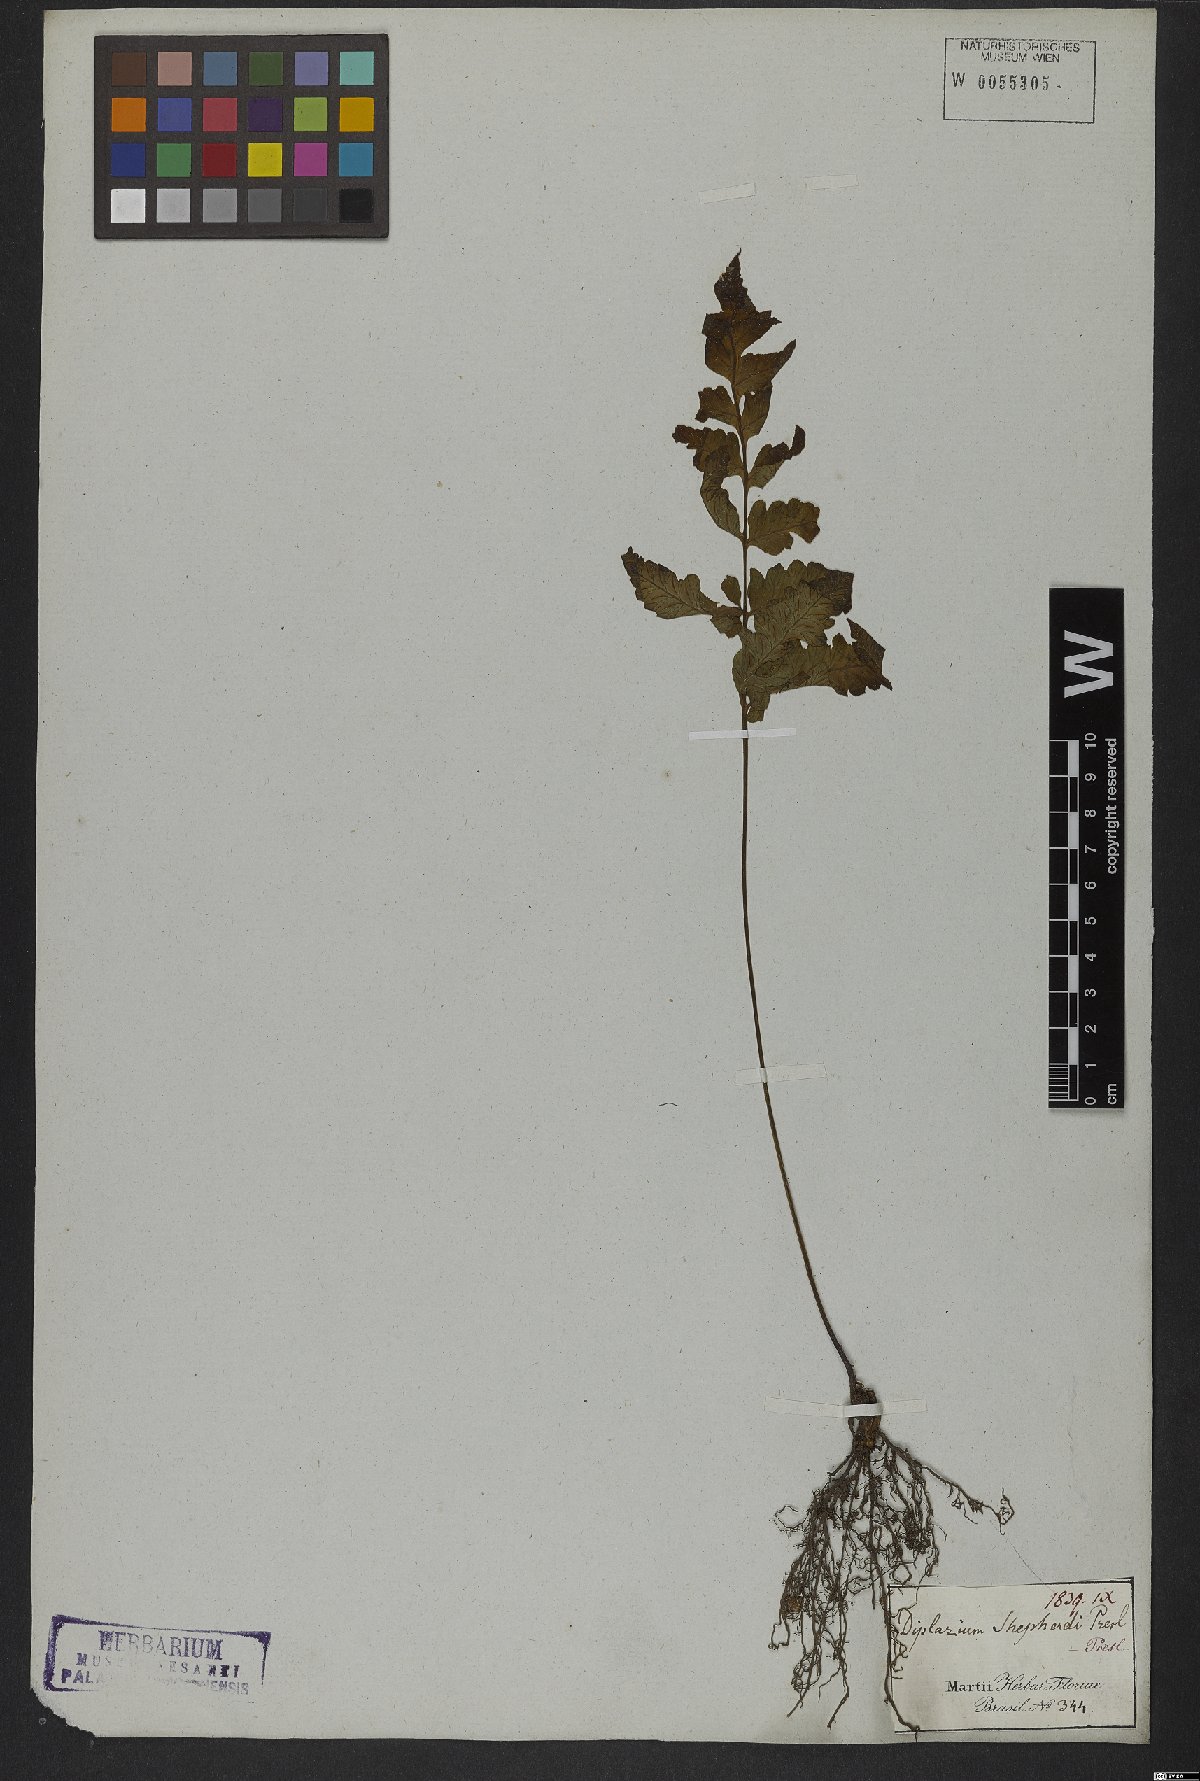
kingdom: Plantae
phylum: Tracheophyta
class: Polypodiopsida
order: Polypodiales
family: Athyriaceae
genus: Diplazium
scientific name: Diplazium cristatum
